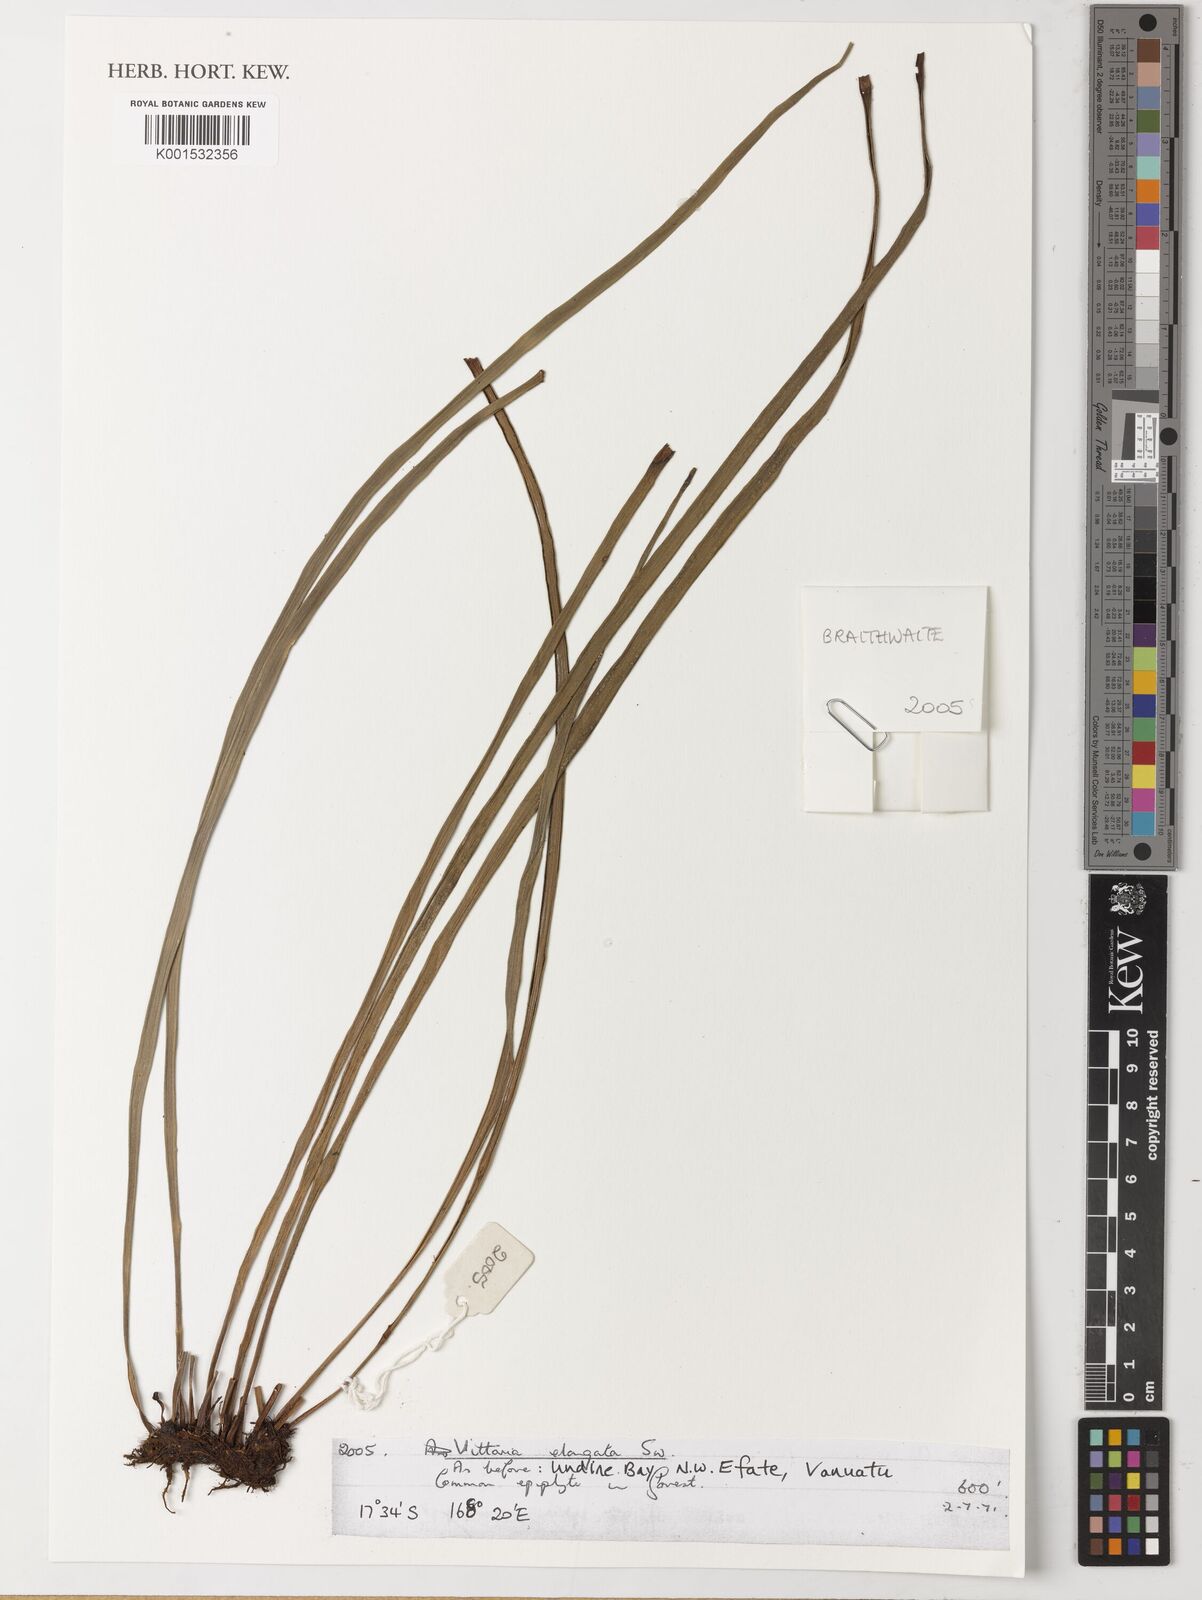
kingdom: Plantae
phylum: Tracheophyta
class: Polypodiopsida
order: Polypodiales
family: Pteridaceae
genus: Haplopteris
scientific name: Haplopteris elongata
